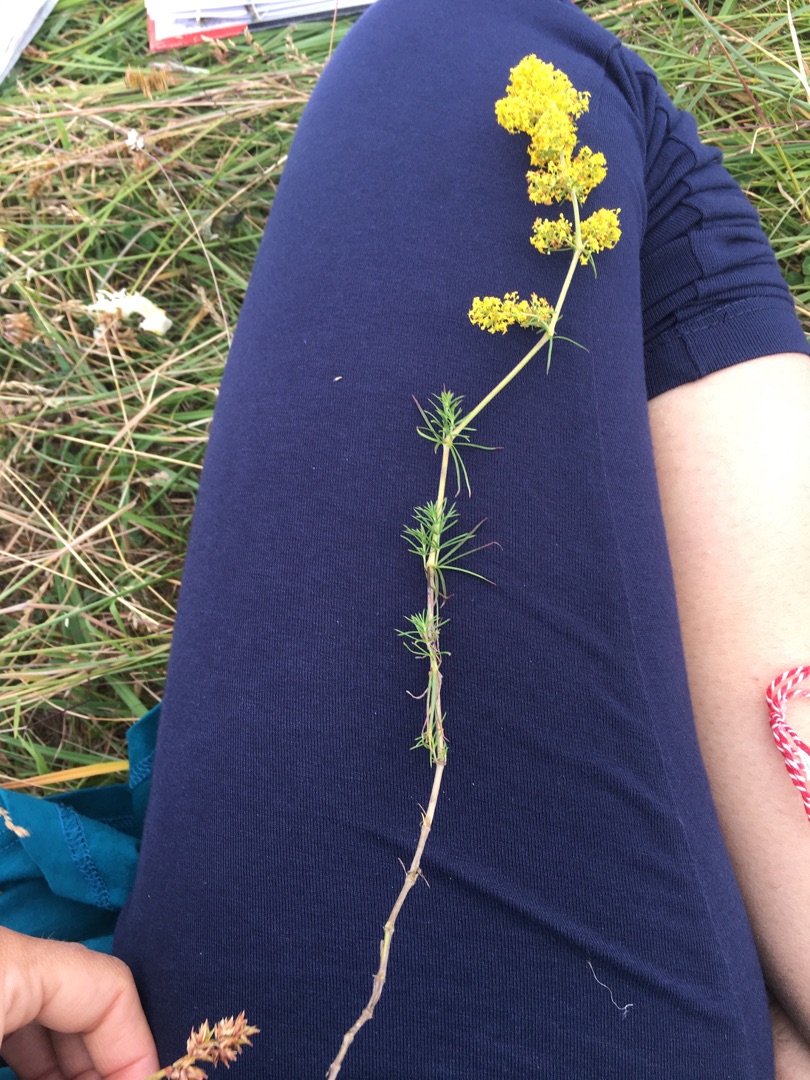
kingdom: Plantae
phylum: Tracheophyta
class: Magnoliopsida
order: Gentianales
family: Rubiaceae
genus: Galium
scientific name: Galium verum
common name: Gul snerre
